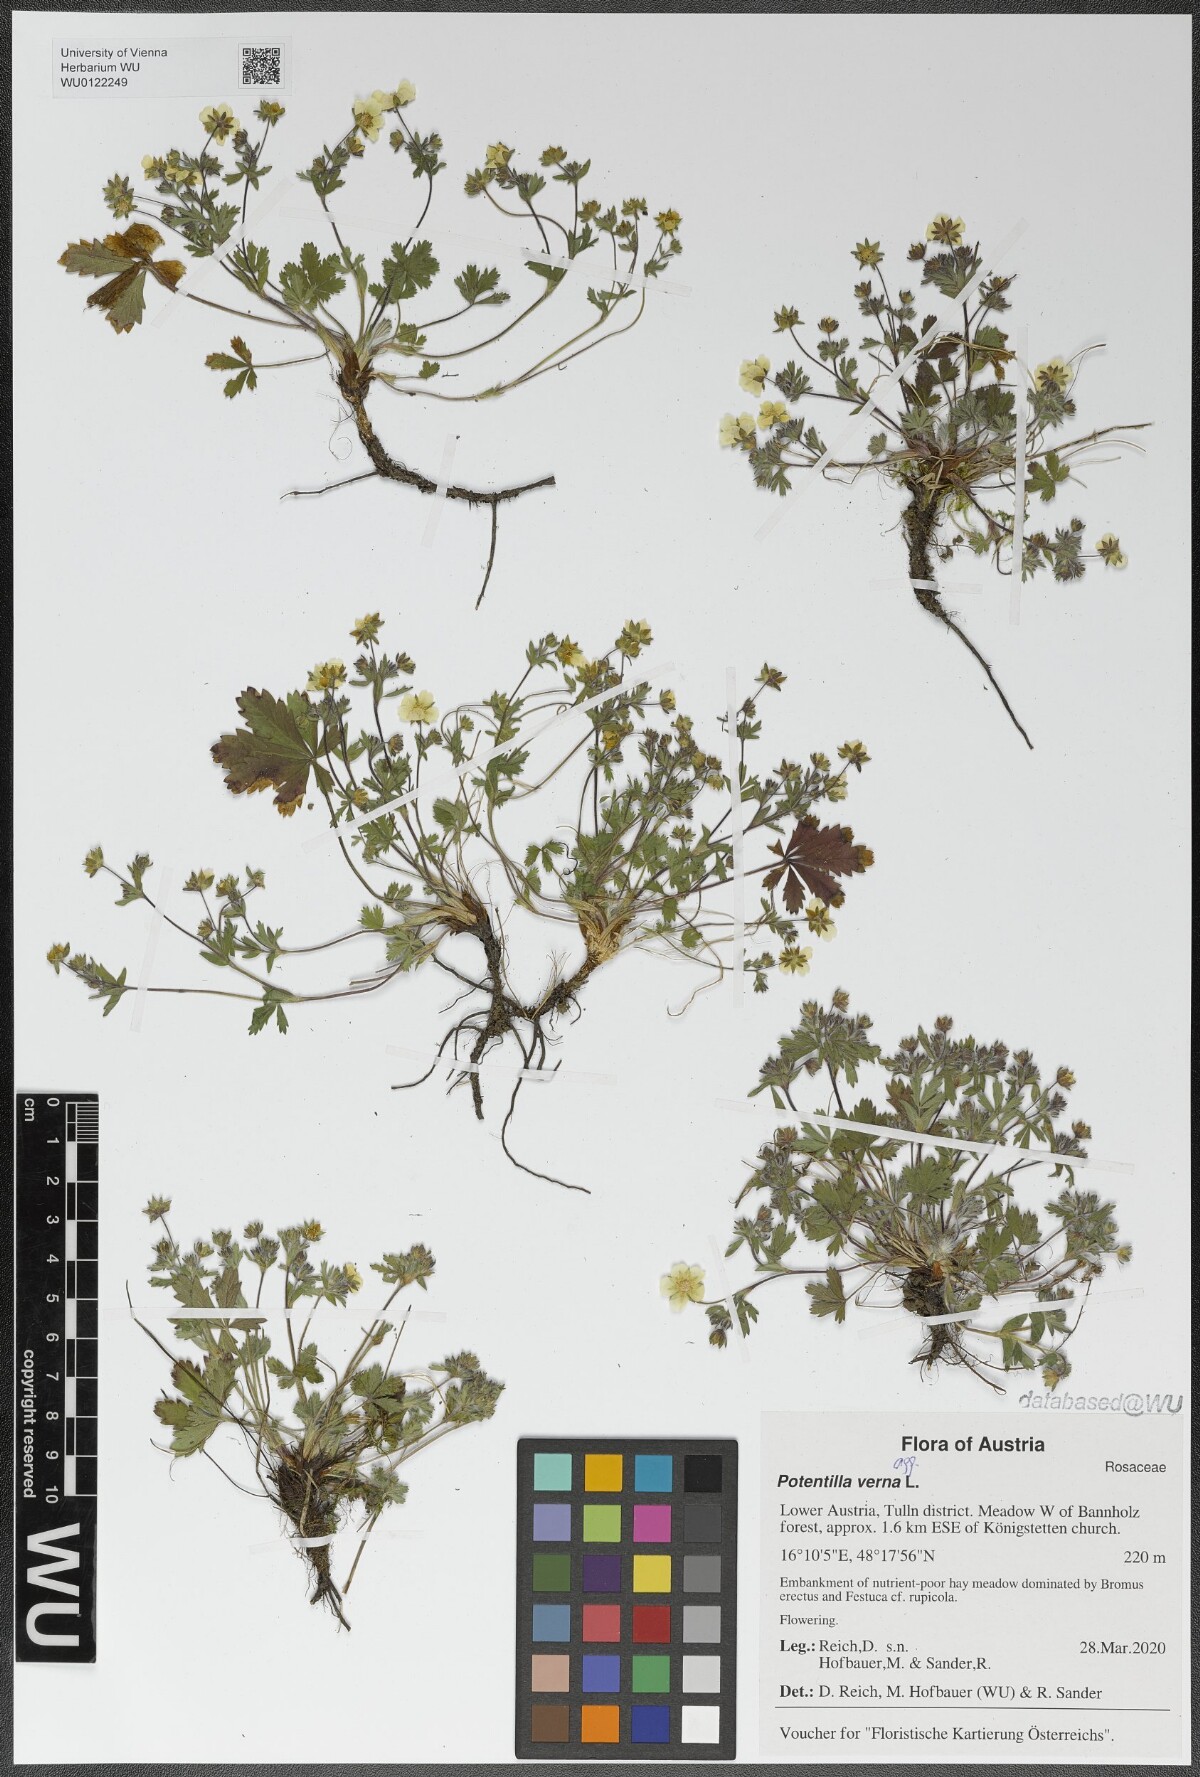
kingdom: Plantae
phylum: Tracheophyta
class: Magnoliopsida
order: Rosales
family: Rosaceae
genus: Potentilla
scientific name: Potentilla verna
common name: Spring cinquefoil
